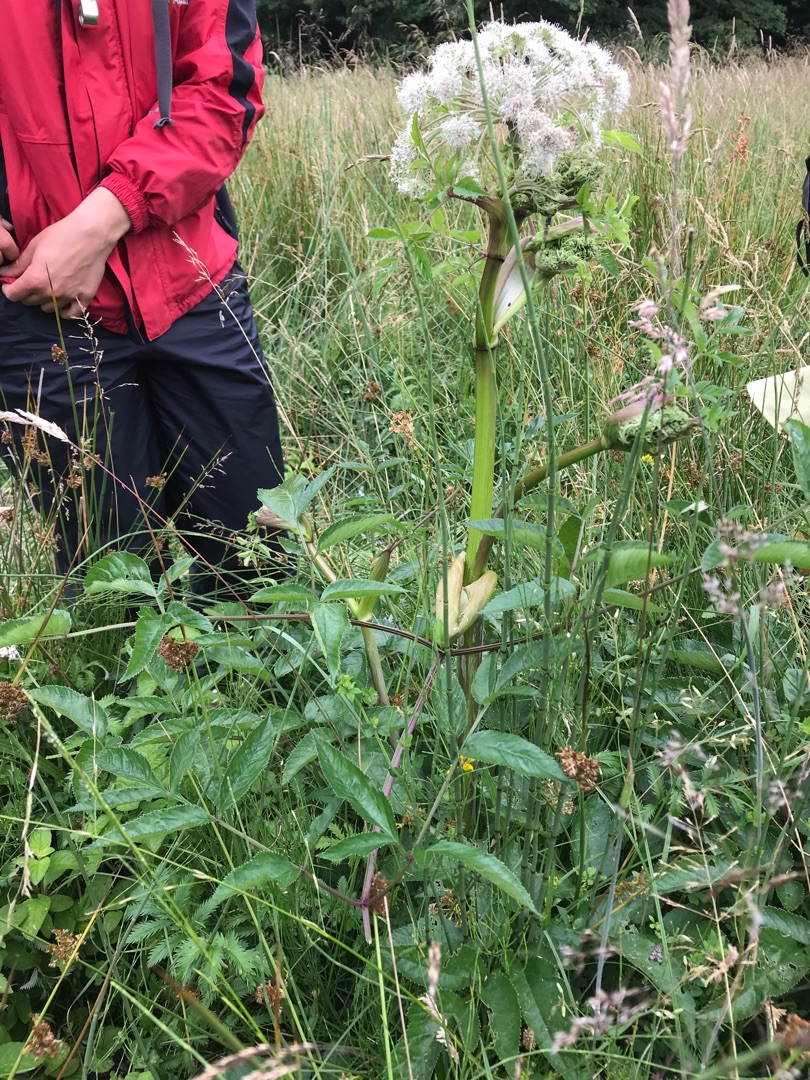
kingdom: Plantae
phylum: Tracheophyta
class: Magnoliopsida
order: Apiales
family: Apiaceae
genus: Angelica
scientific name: Angelica sylvestris
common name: Angelik
